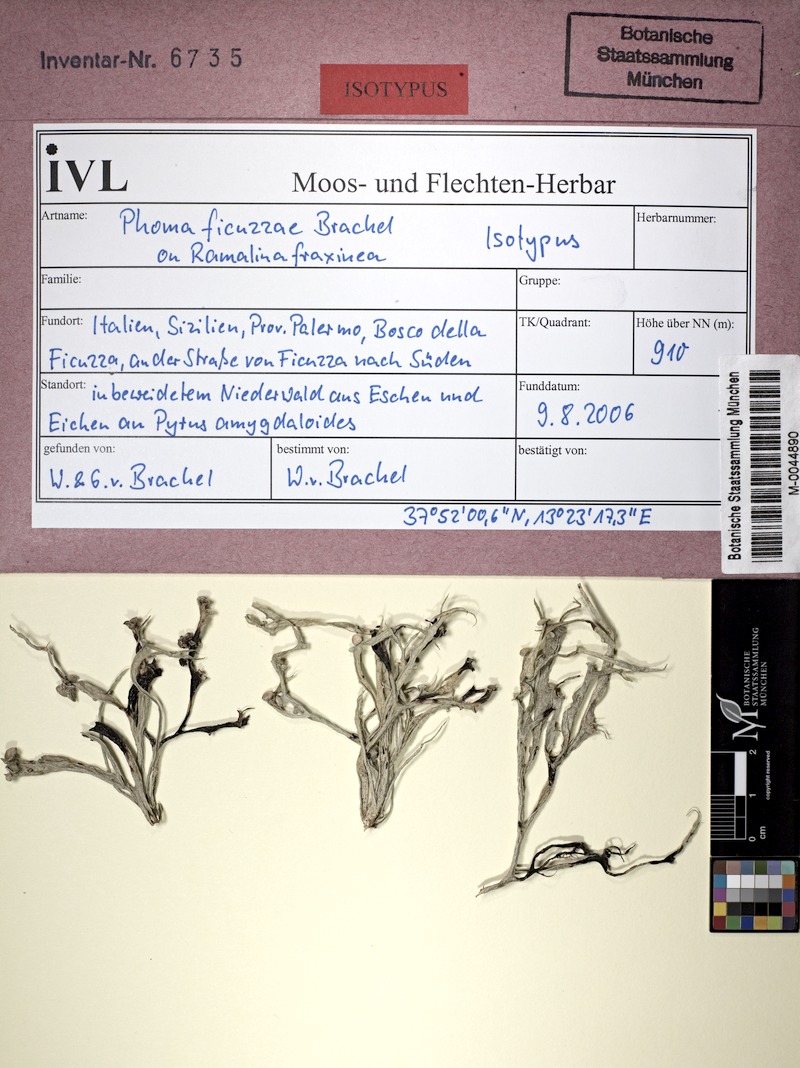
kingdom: Fungi
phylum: Ascomycota
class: Lecanoromycetes
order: Lecanorales
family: Ramalinaceae
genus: Ramalina
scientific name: Ramalina fraxinea
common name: Cartilage lichen
